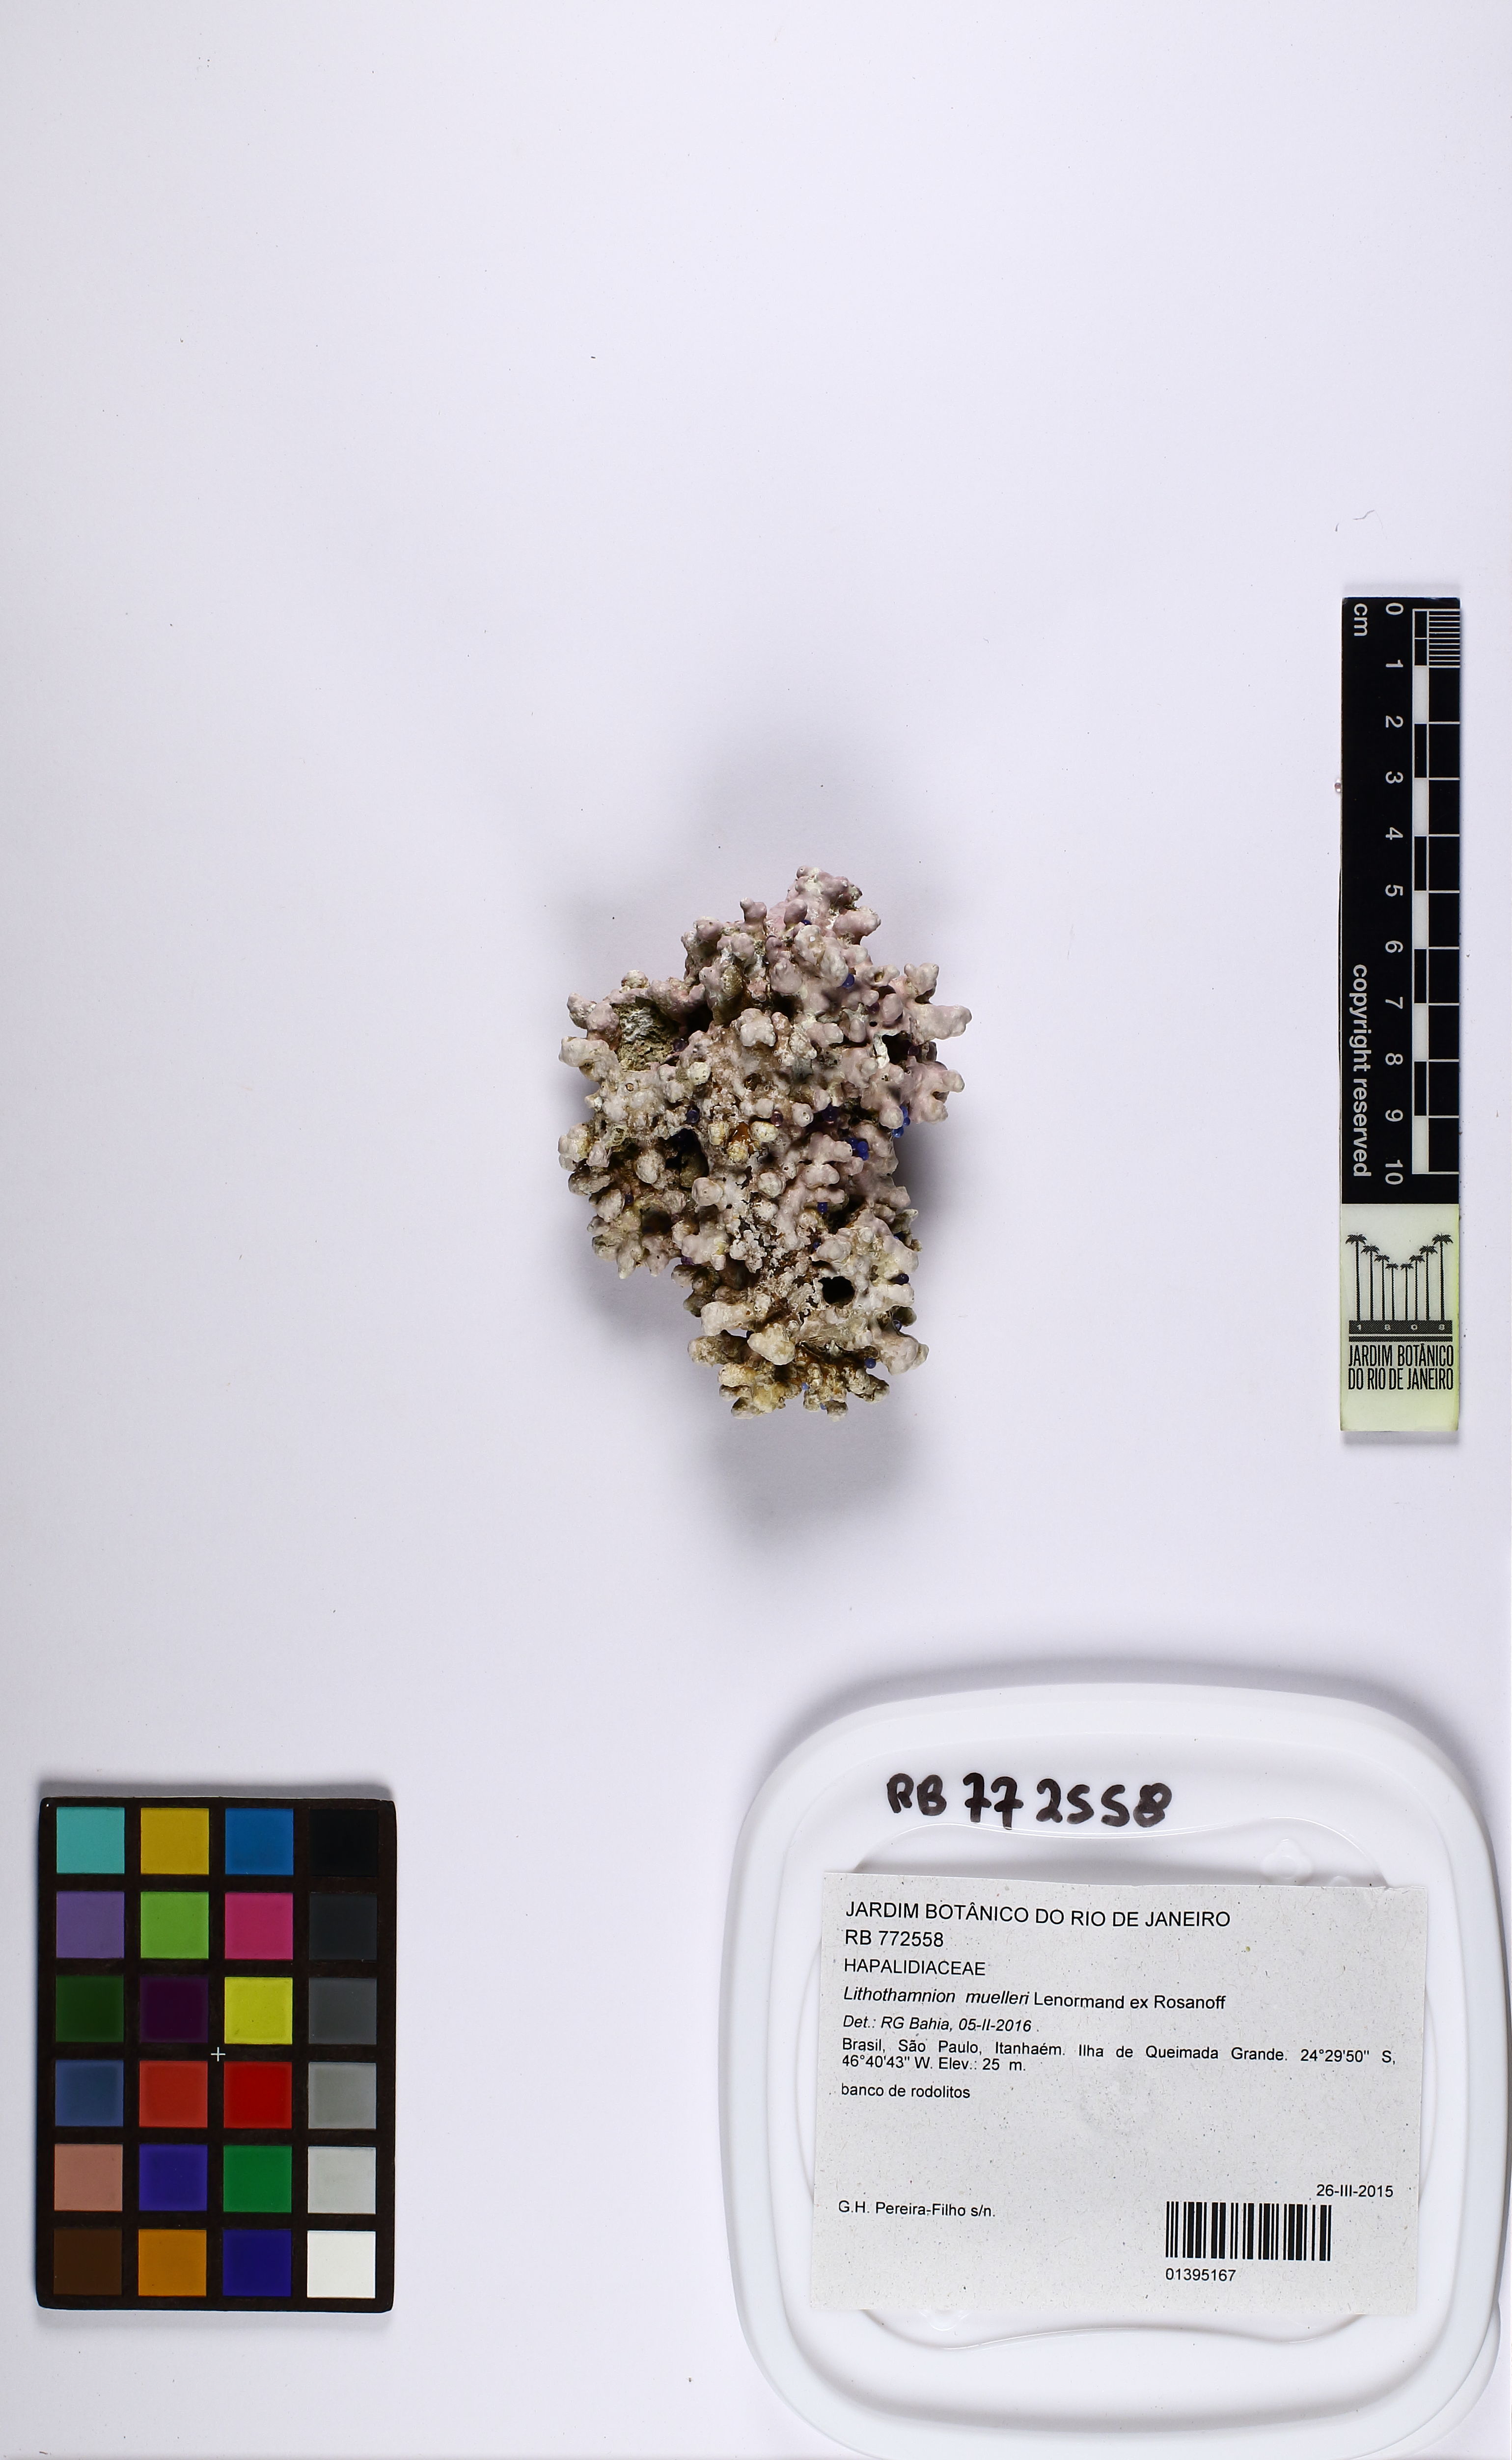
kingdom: Plantae
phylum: Rhodophyta
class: Florideophyceae
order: Corallinales
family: Hapalidiaceae
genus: Lithothamnion
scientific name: Lithothamnion muelleri
